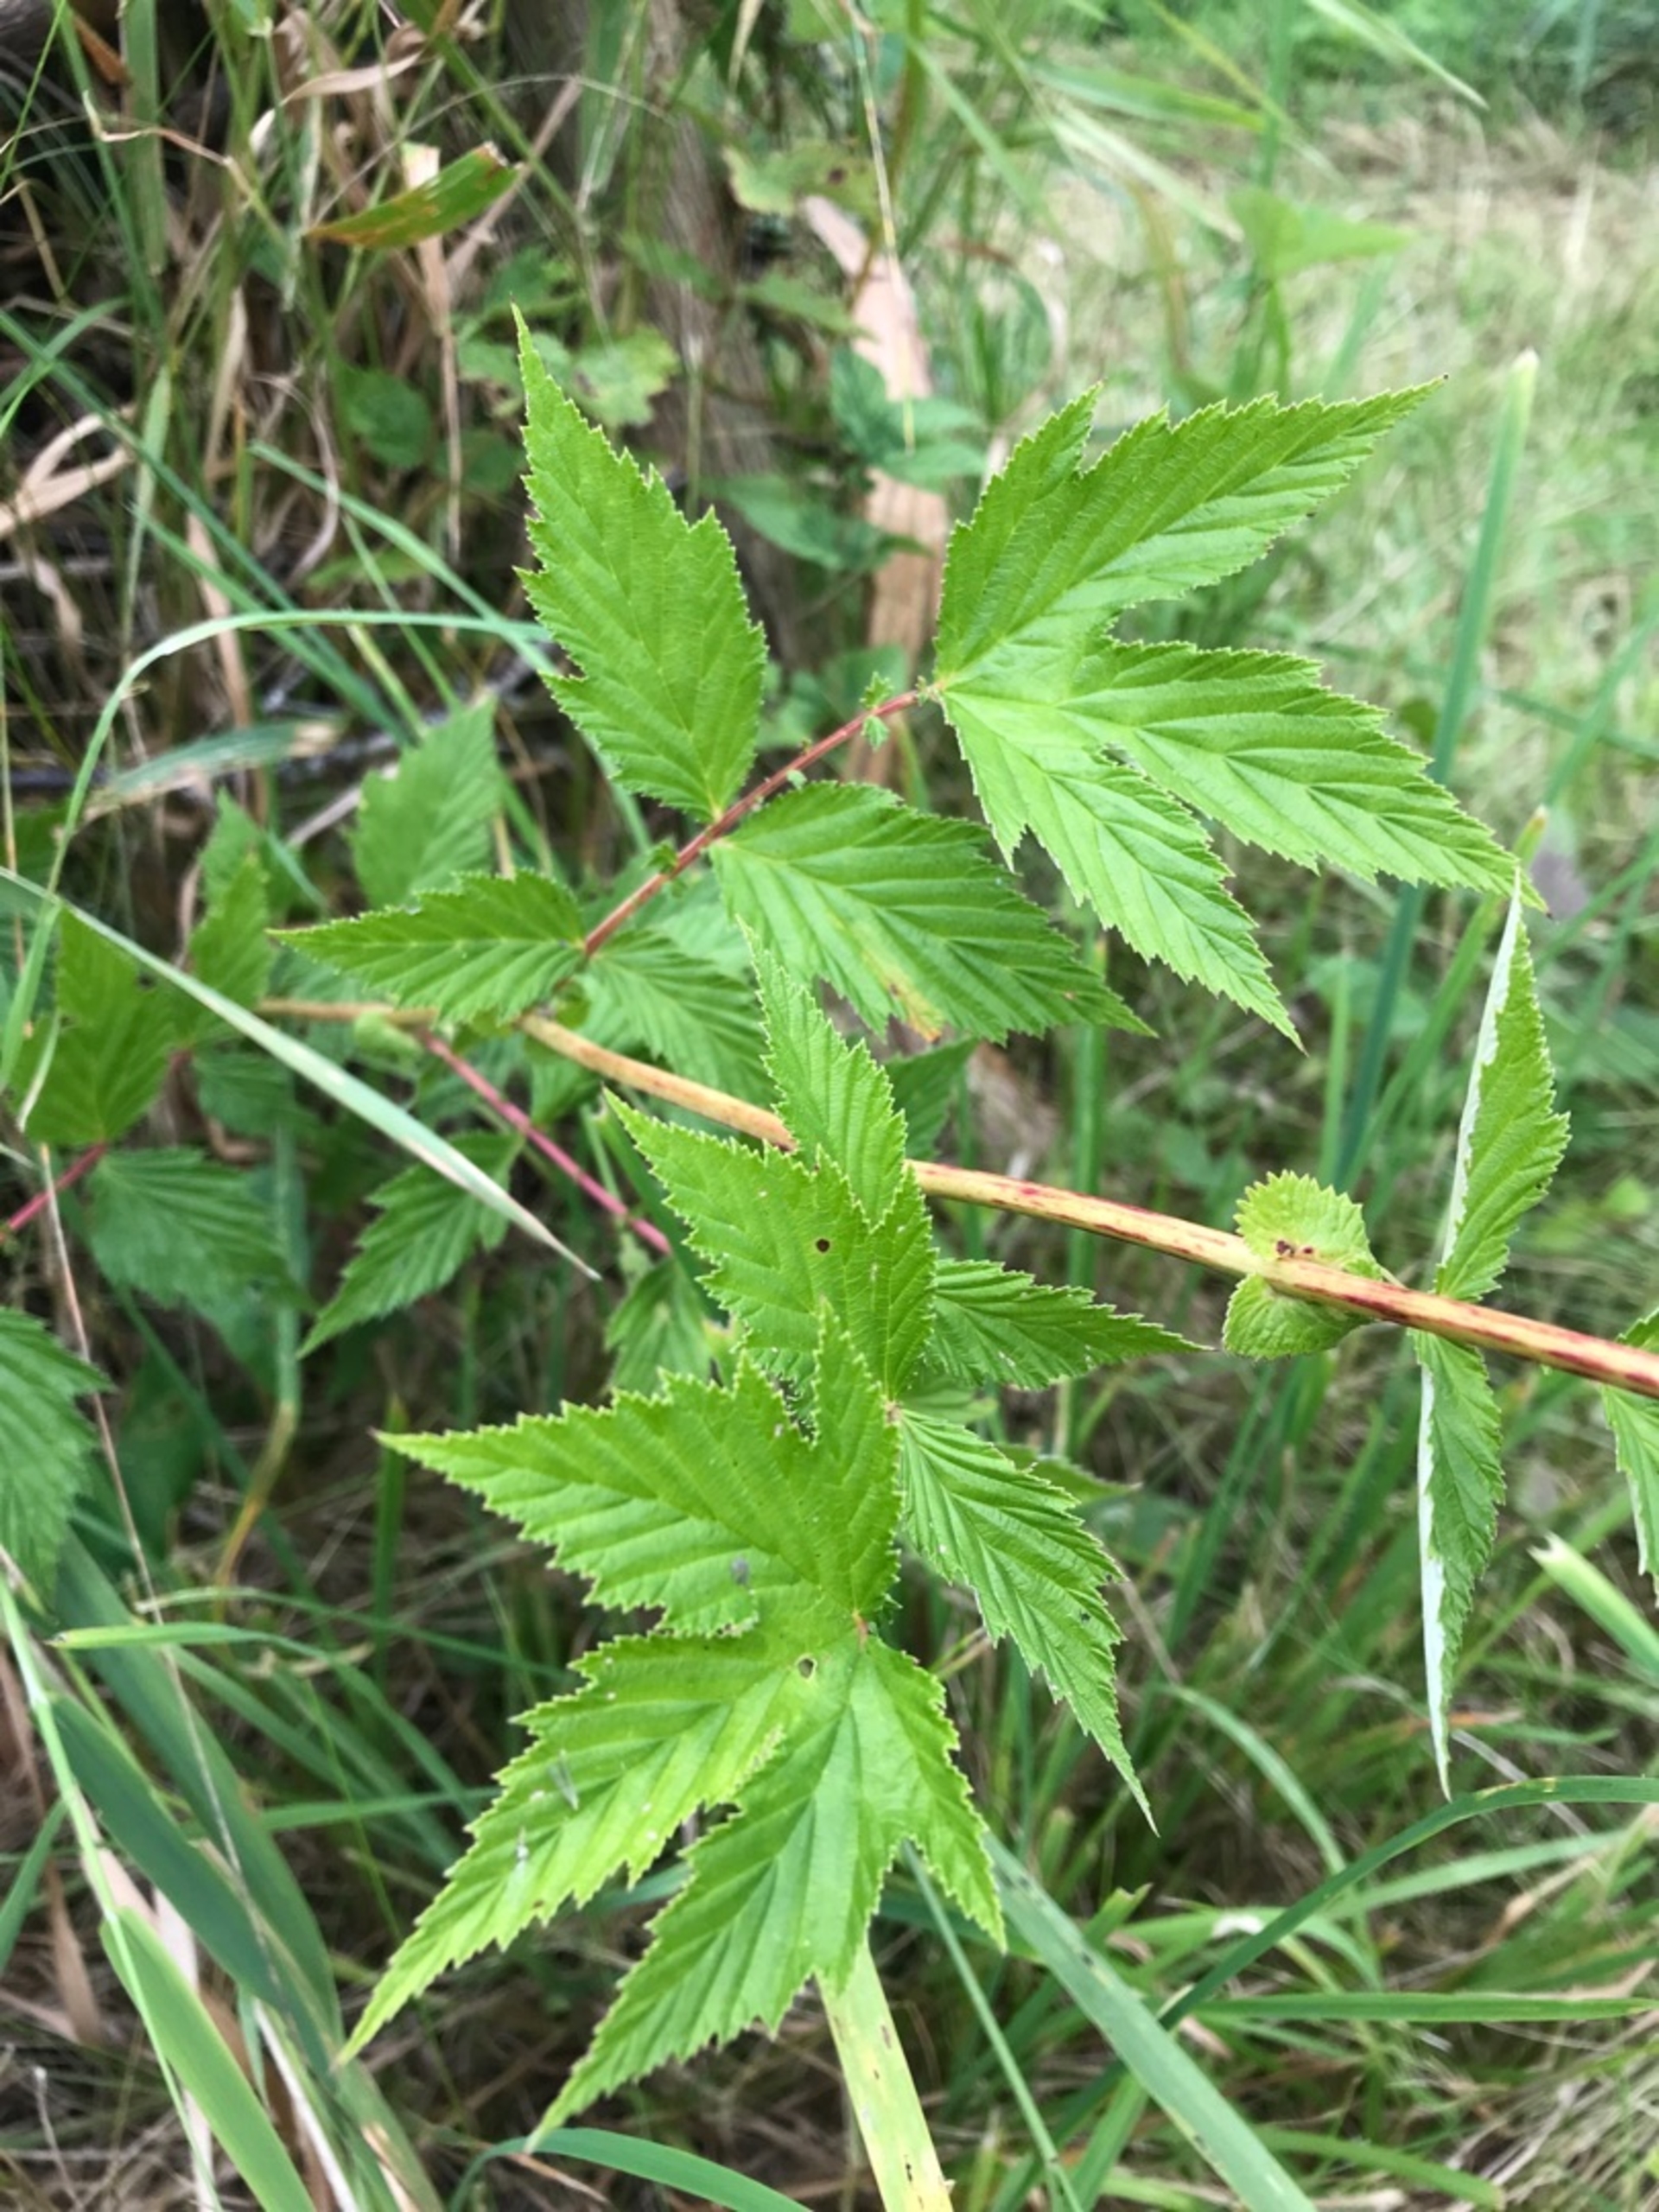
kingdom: Plantae
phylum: Tracheophyta
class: Magnoliopsida
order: Rosales
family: Rosaceae
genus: Filipendula
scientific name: Filipendula ulmaria
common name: Almindelig mjødurt
